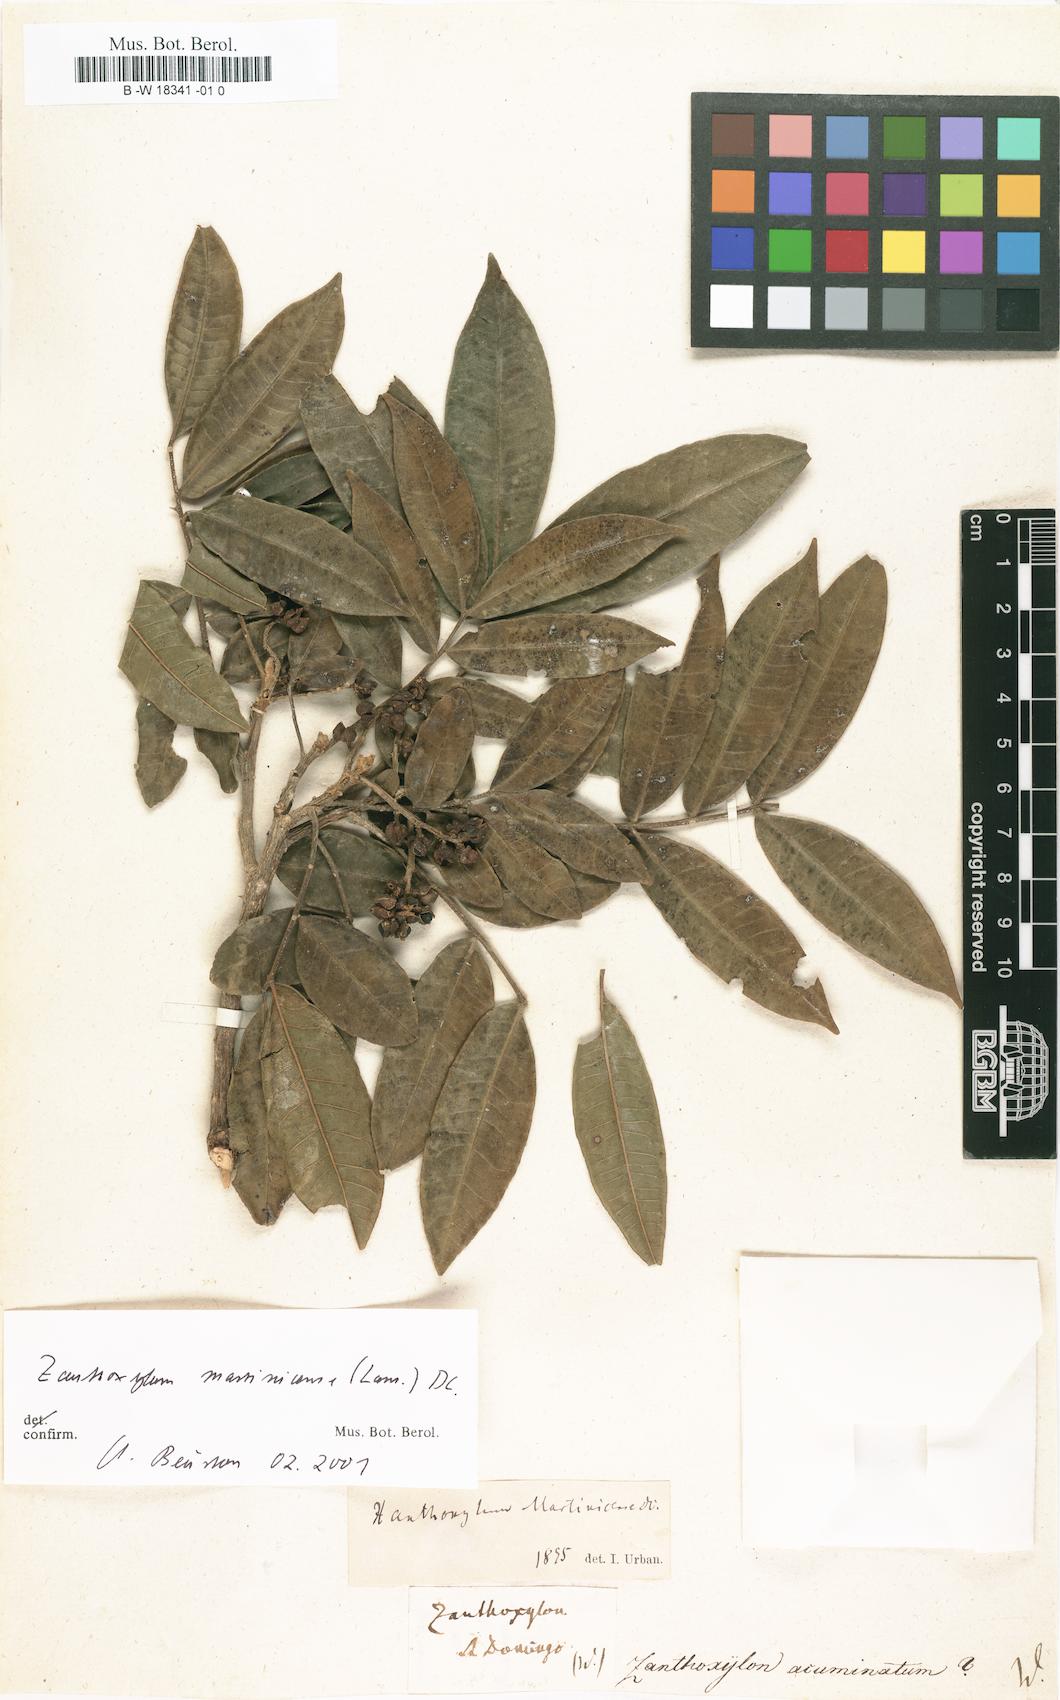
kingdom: Plantae
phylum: Tracheophyta
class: Magnoliopsida
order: Sapindales
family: Rutaceae
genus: Zanthoxylum
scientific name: Zanthoxylum acuminatum
